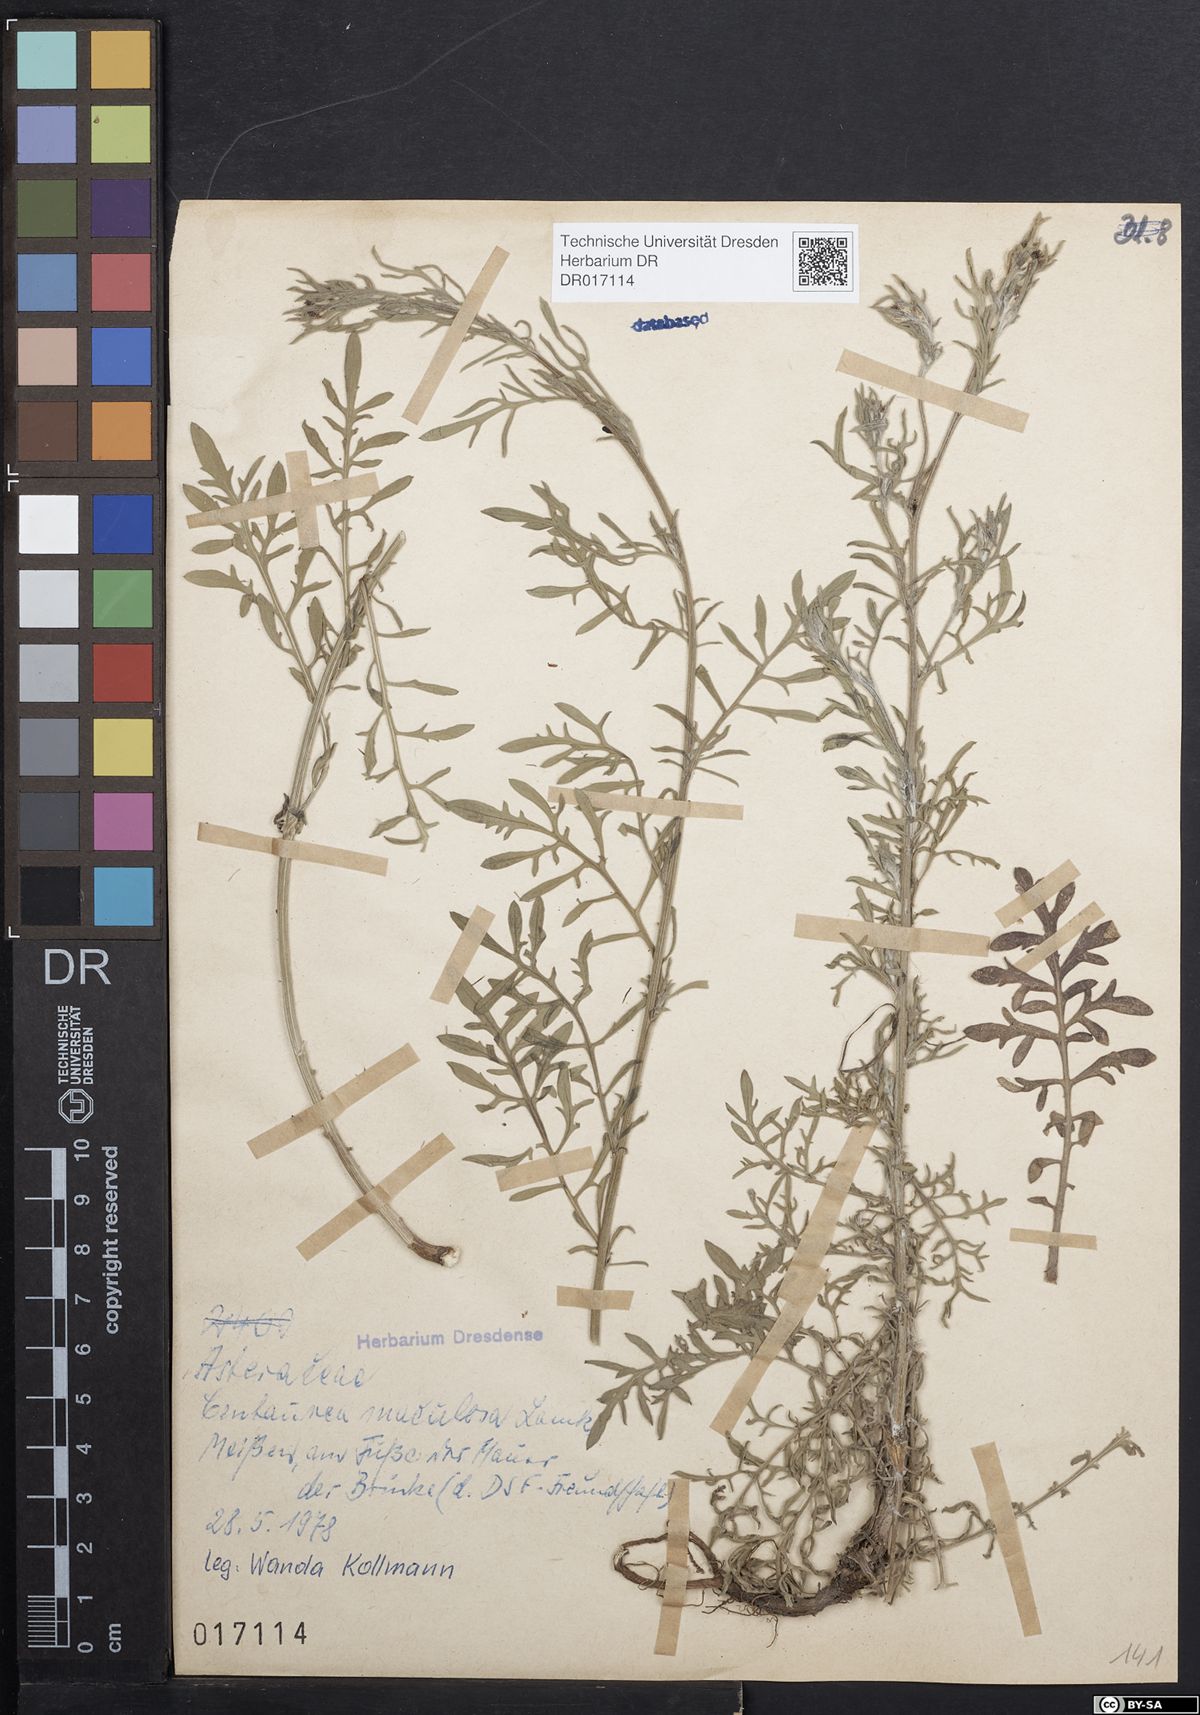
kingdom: Plantae
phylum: Tracheophyta
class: Magnoliopsida
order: Asterales
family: Asteraceae
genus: Centaurea
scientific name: Centaurea stoebe
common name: Spotted knapweed
